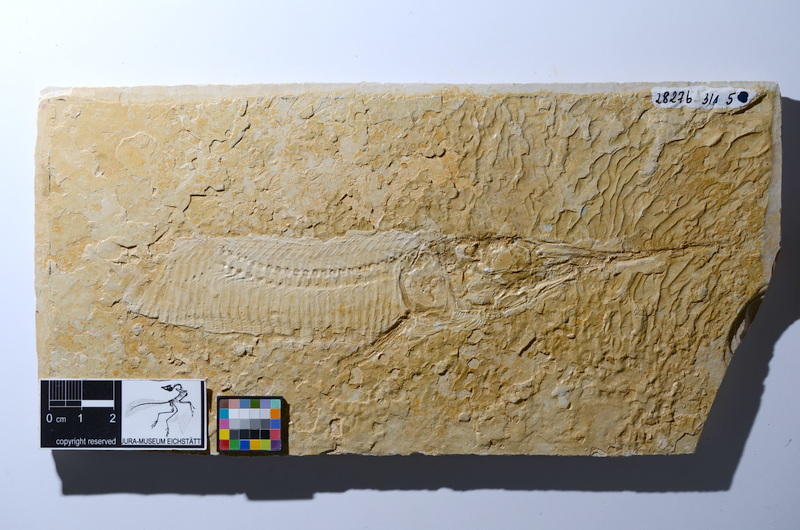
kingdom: Animalia
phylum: Chordata
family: Aspidorhynchidae
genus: Aspidorhynchus
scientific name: Aspidorhynchus acutirostris
